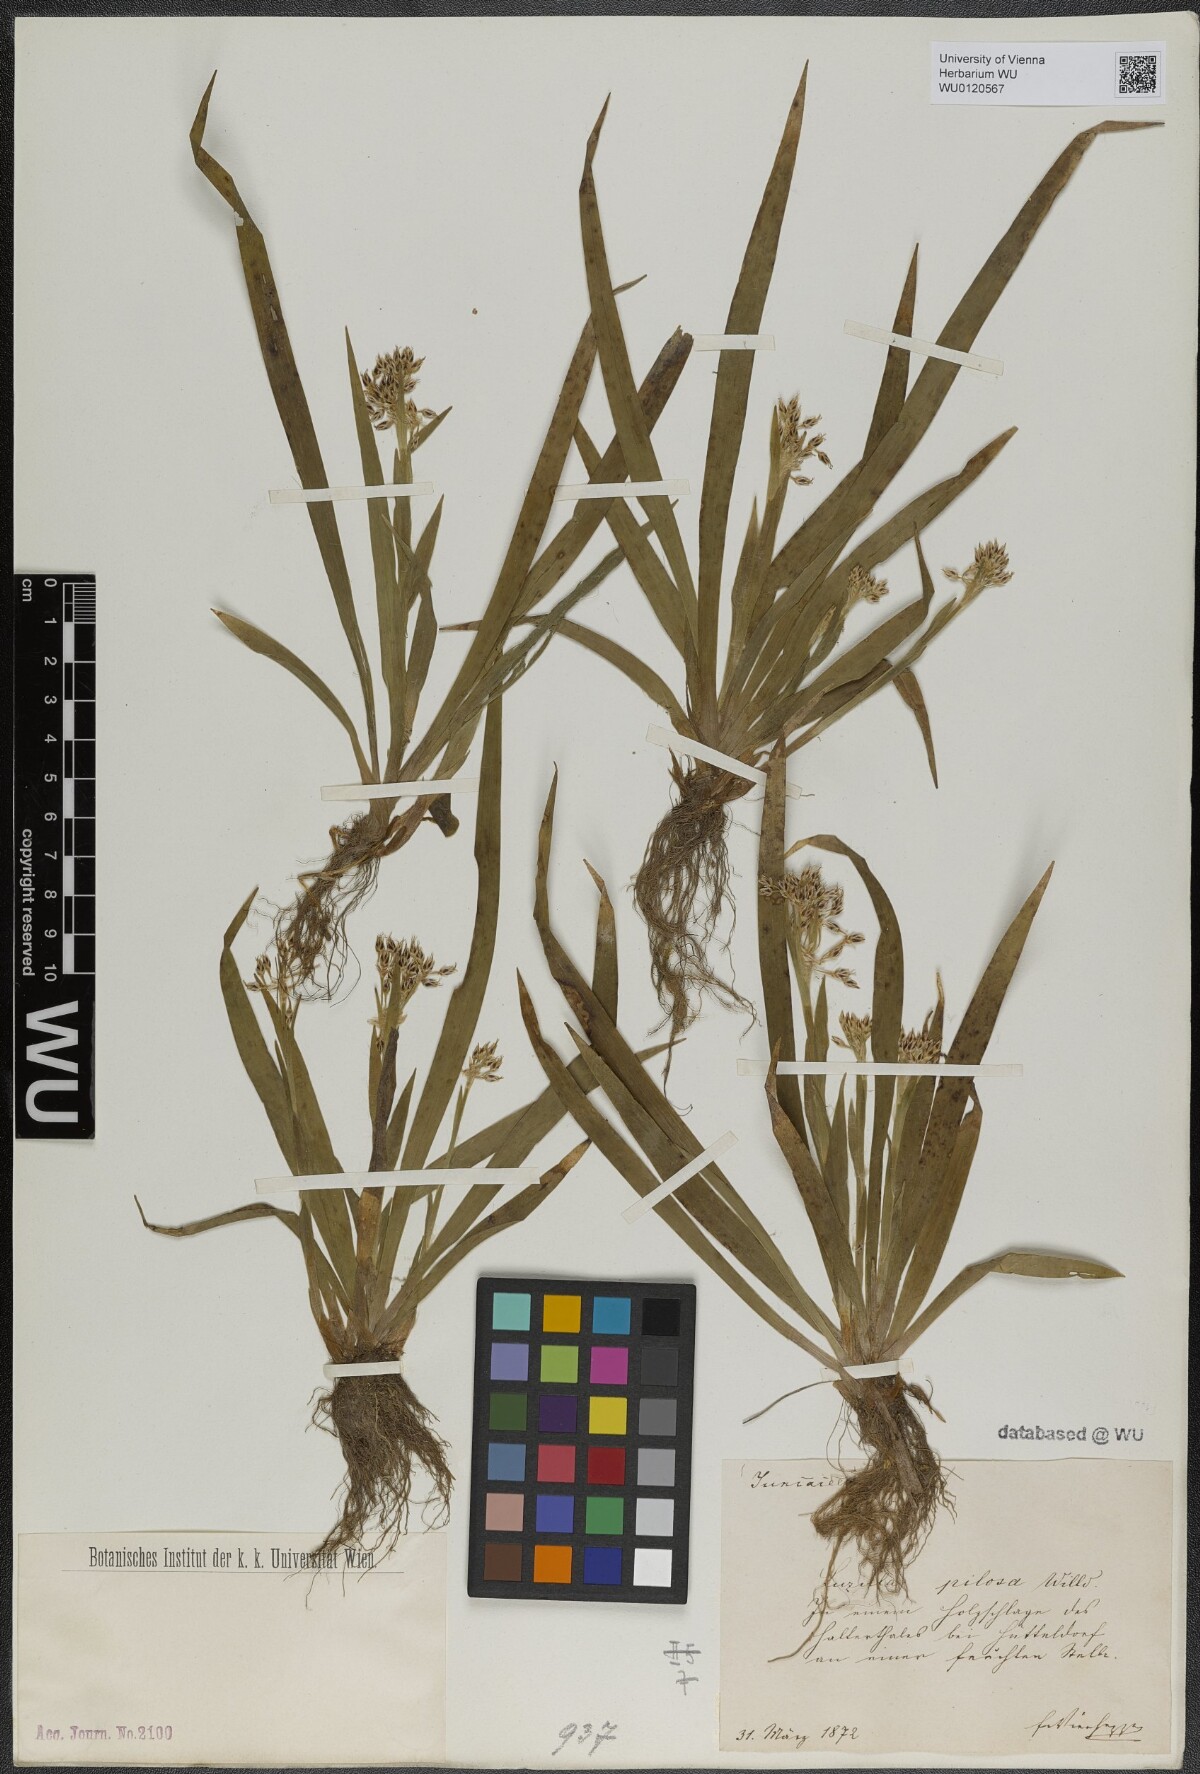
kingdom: Plantae
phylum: Tracheophyta
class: Liliopsida
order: Poales
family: Juncaceae
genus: Luzula
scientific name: Luzula pilosa
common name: Hairy wood-rush
